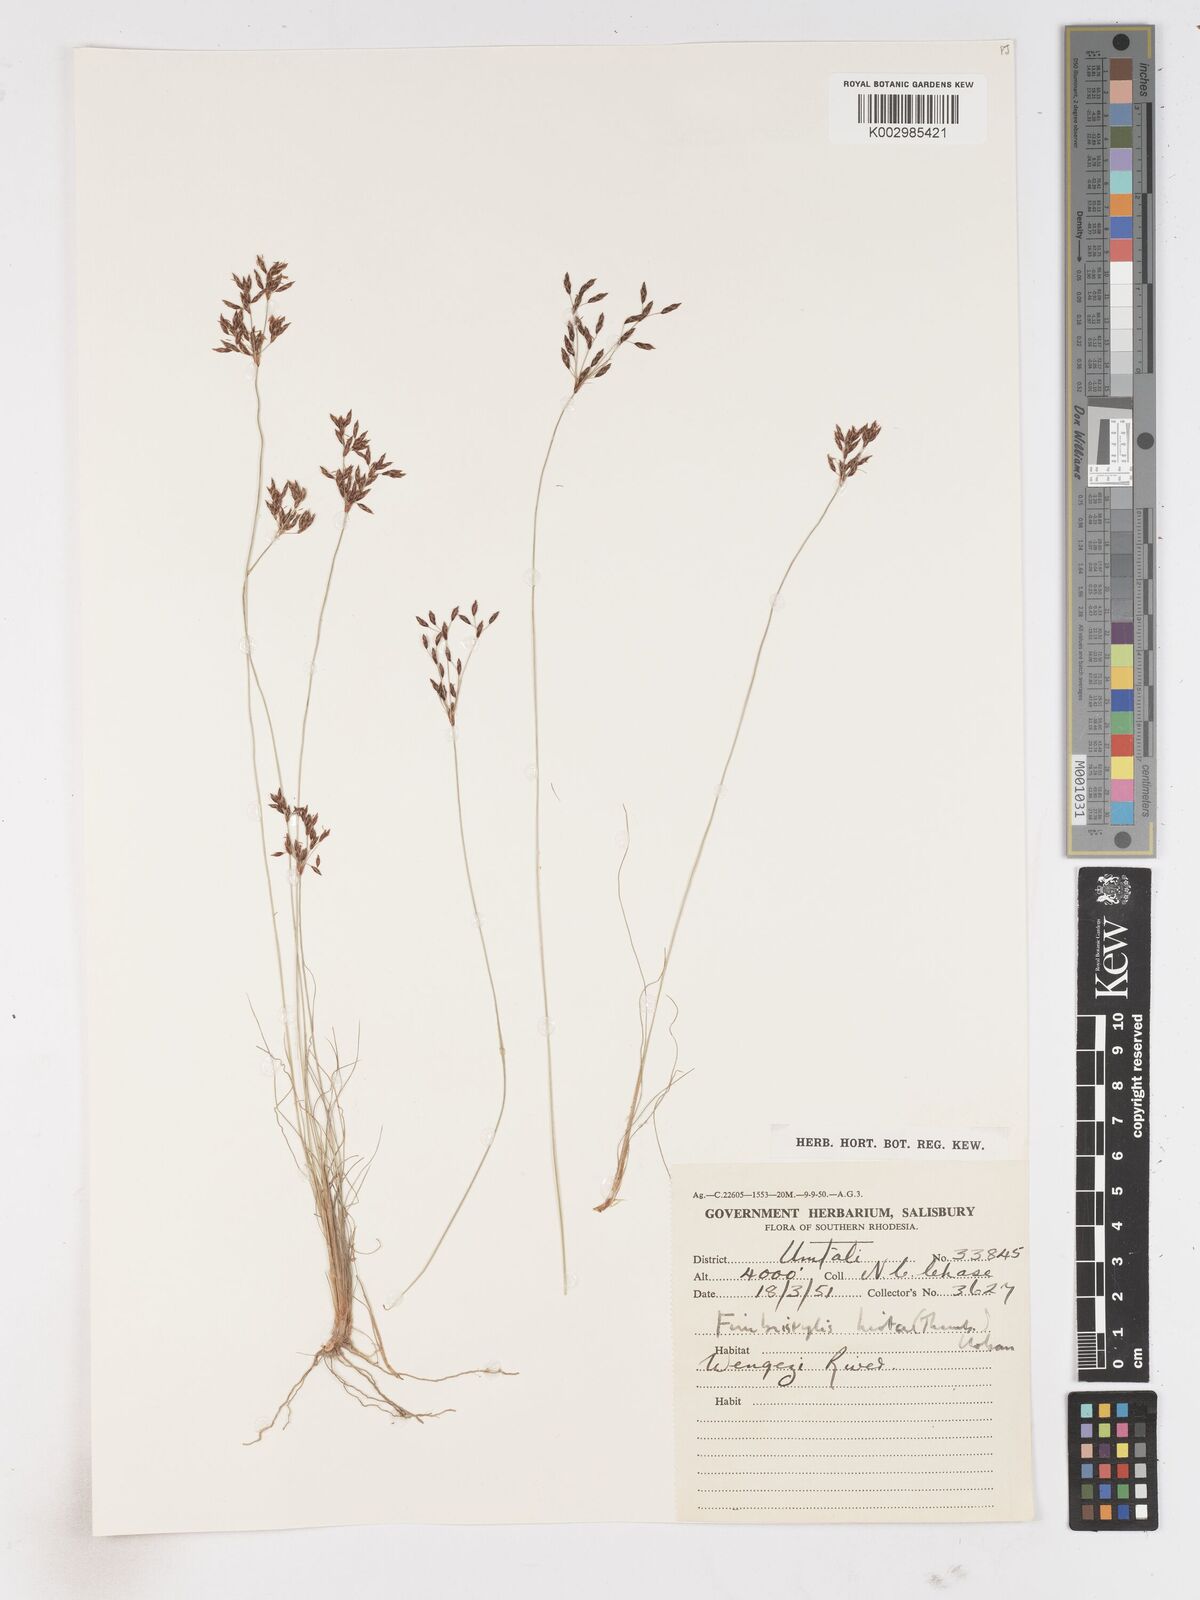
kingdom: Plantae
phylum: Tracheophyta
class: Liliopsida
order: Poales
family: Cyperaceae
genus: Fimbristylis
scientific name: Fimbristylis
